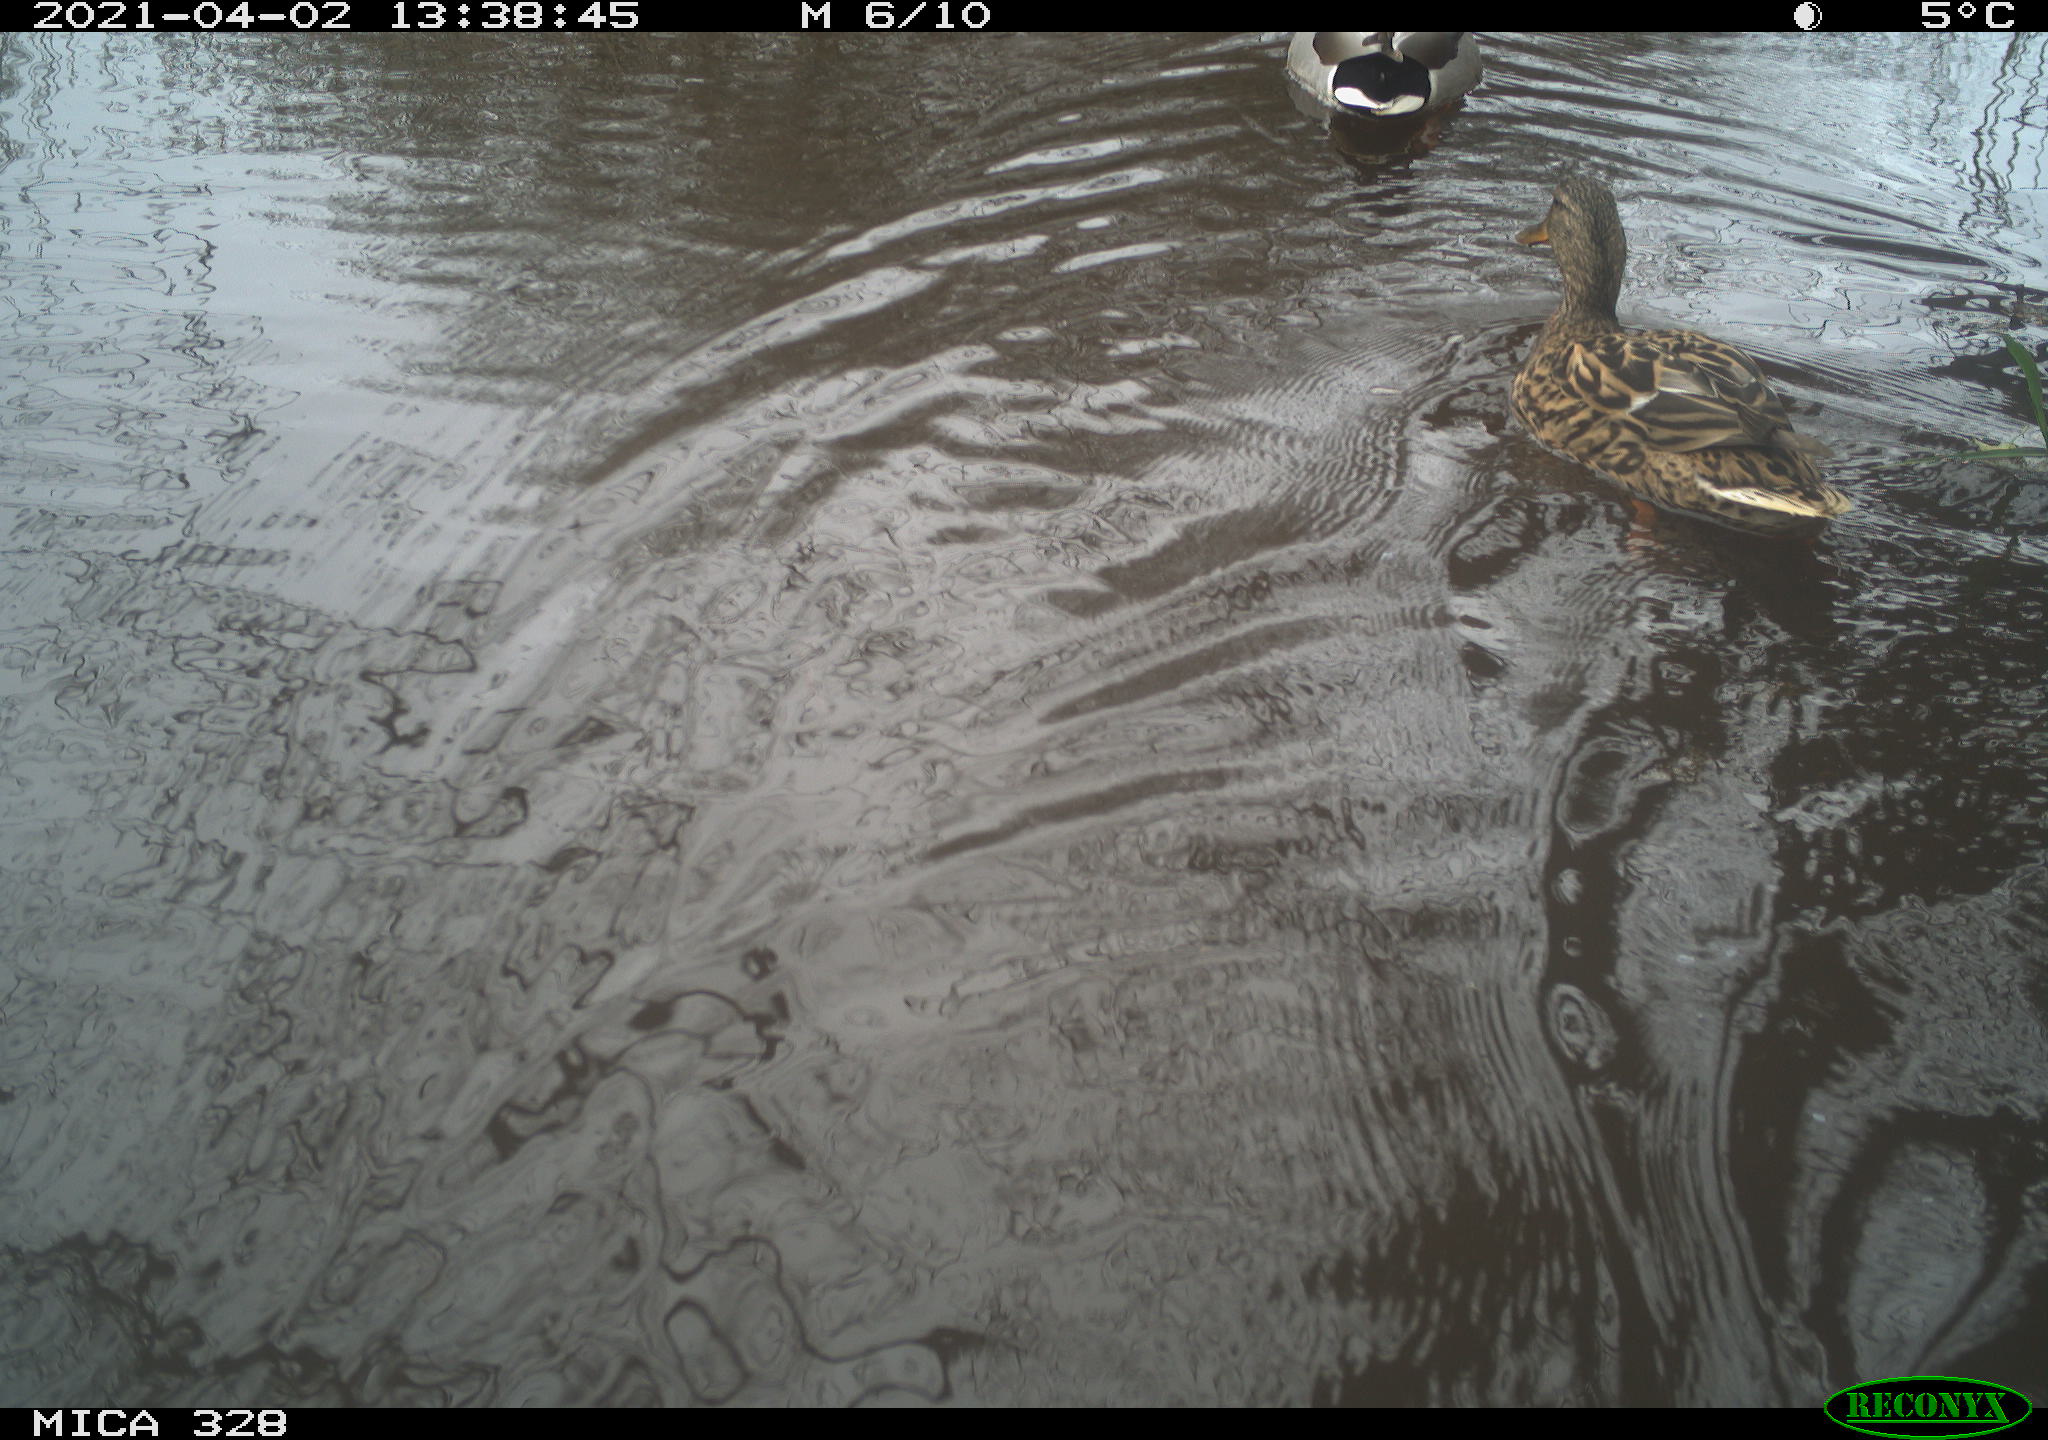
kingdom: Animalia
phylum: Chordata
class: Aves
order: Anseriformes
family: Anatidae
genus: Anas
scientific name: Anas platyrhynchos
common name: Mallard
